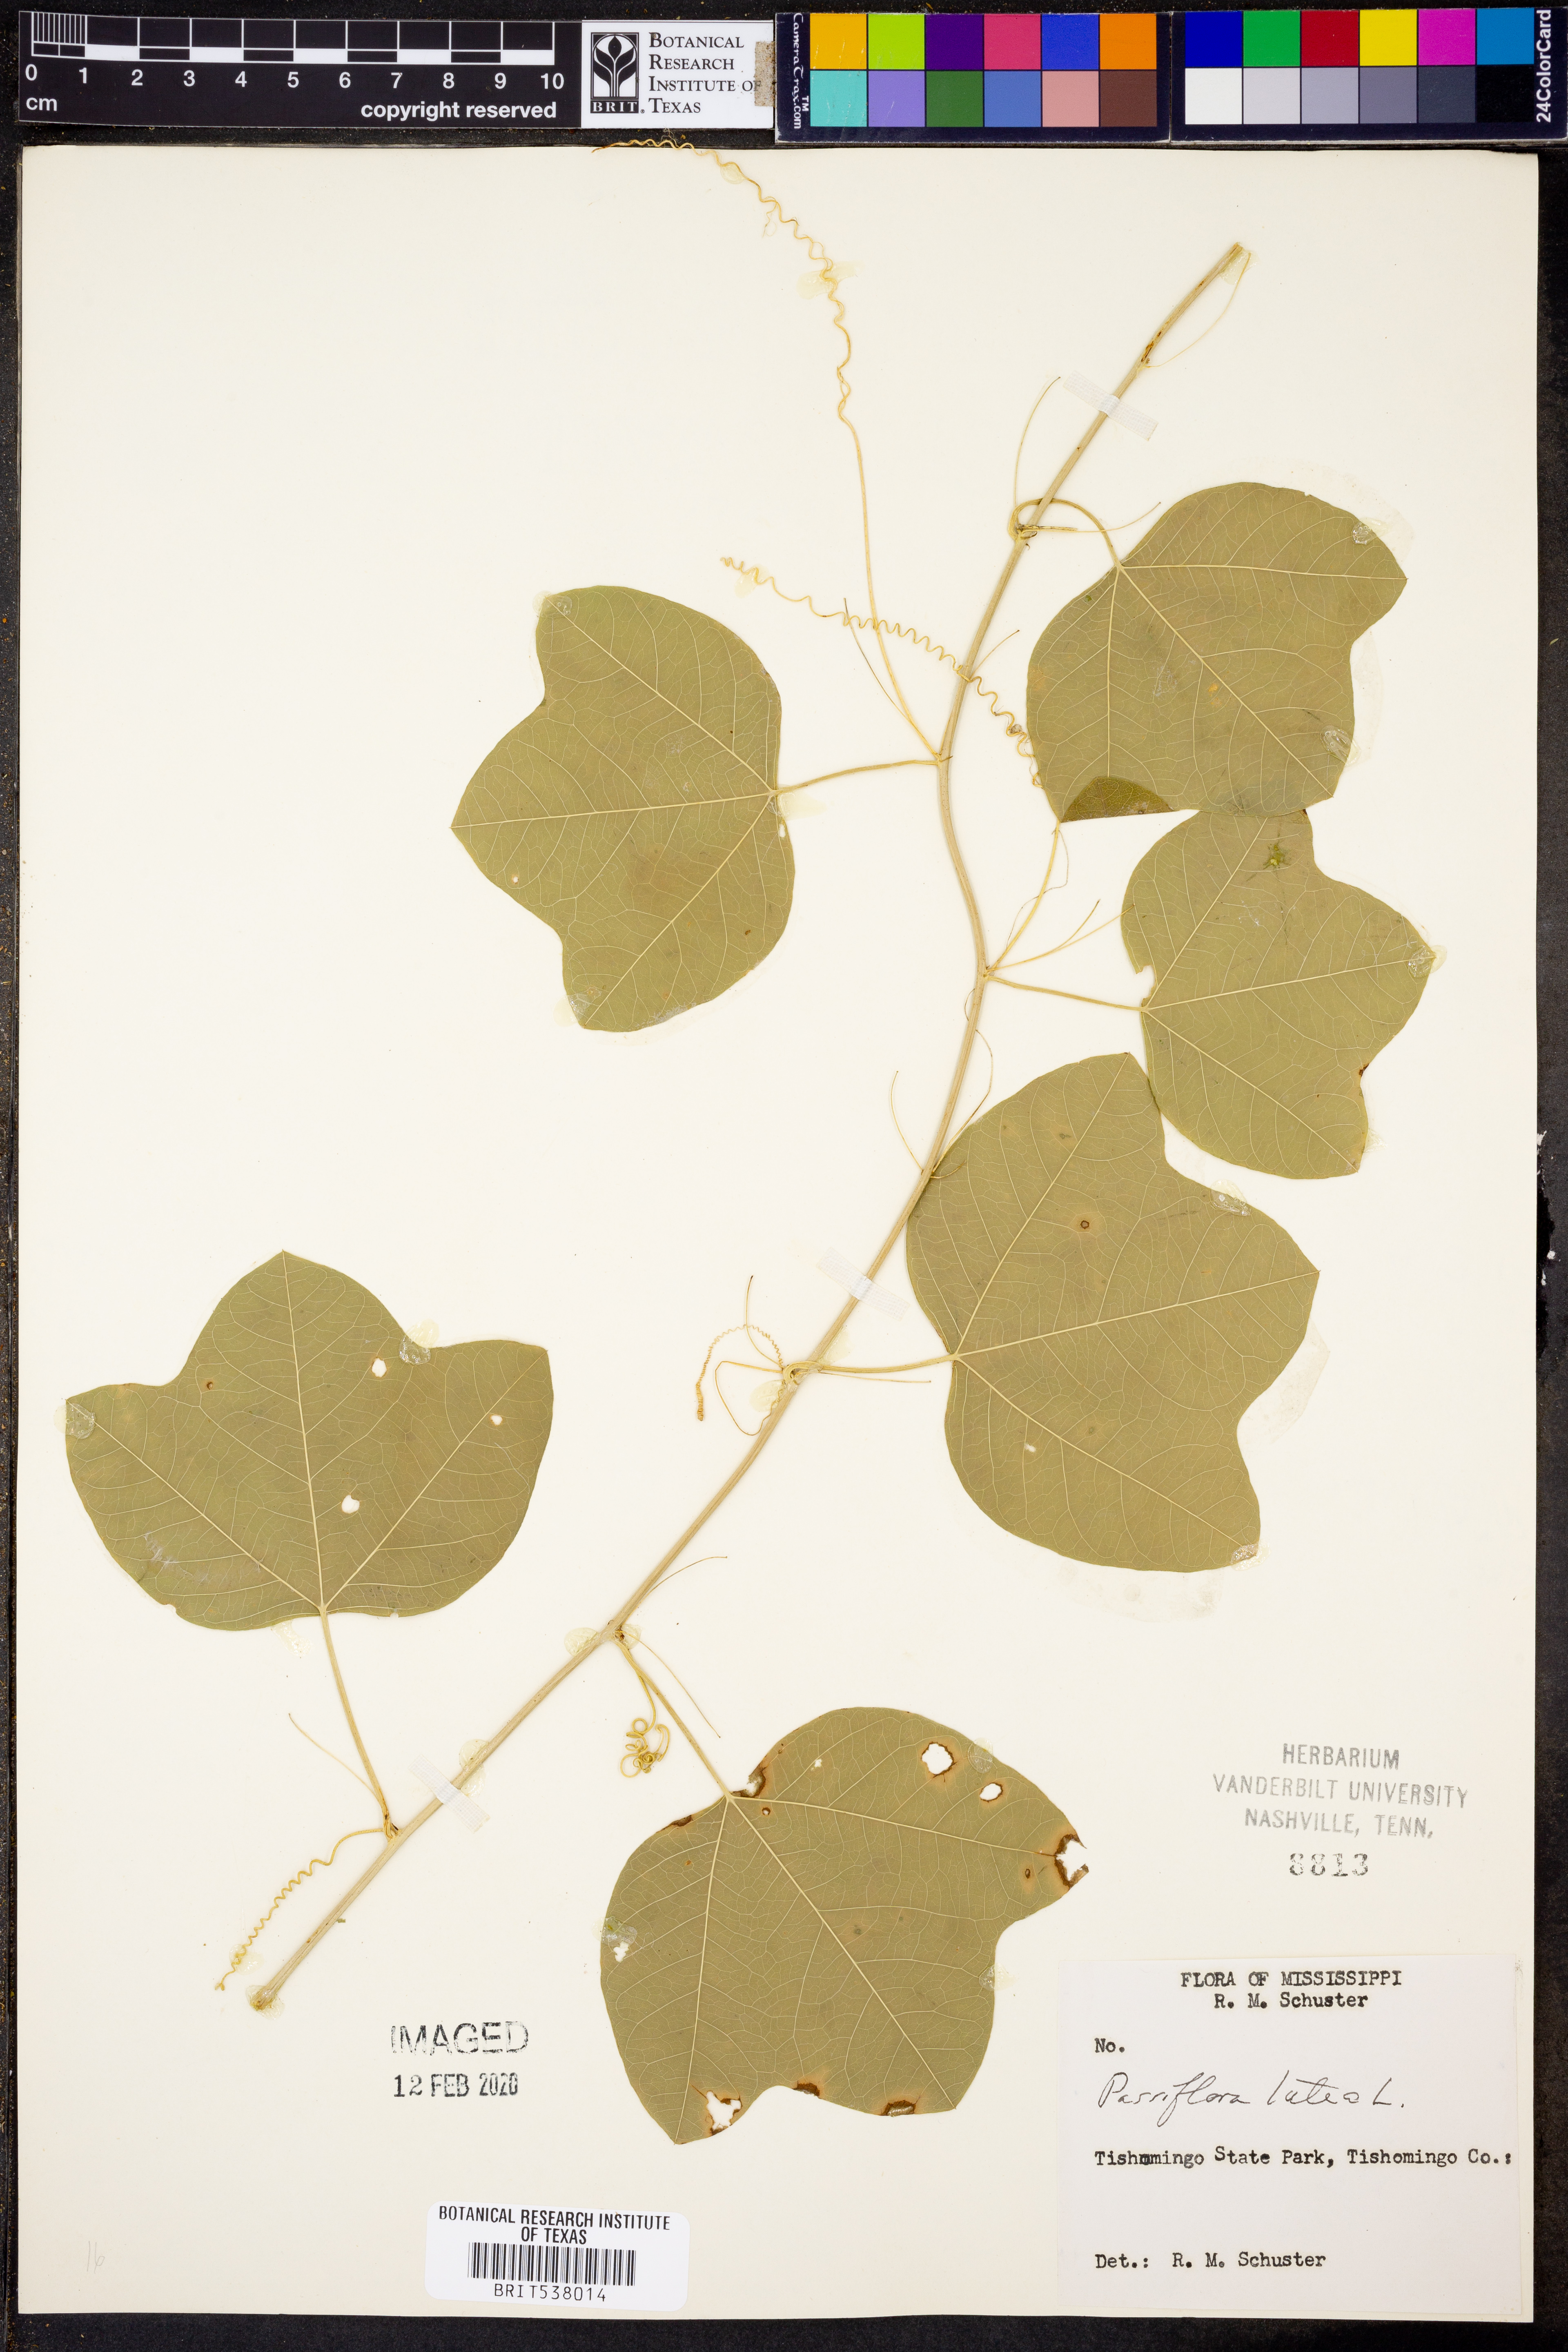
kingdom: Plantae
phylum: Tracheophyta
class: Magnoliopsida
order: Malpighiales
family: Passifloraceae
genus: Passiflora
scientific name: Passiflora lutea
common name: Yellow passionflower
